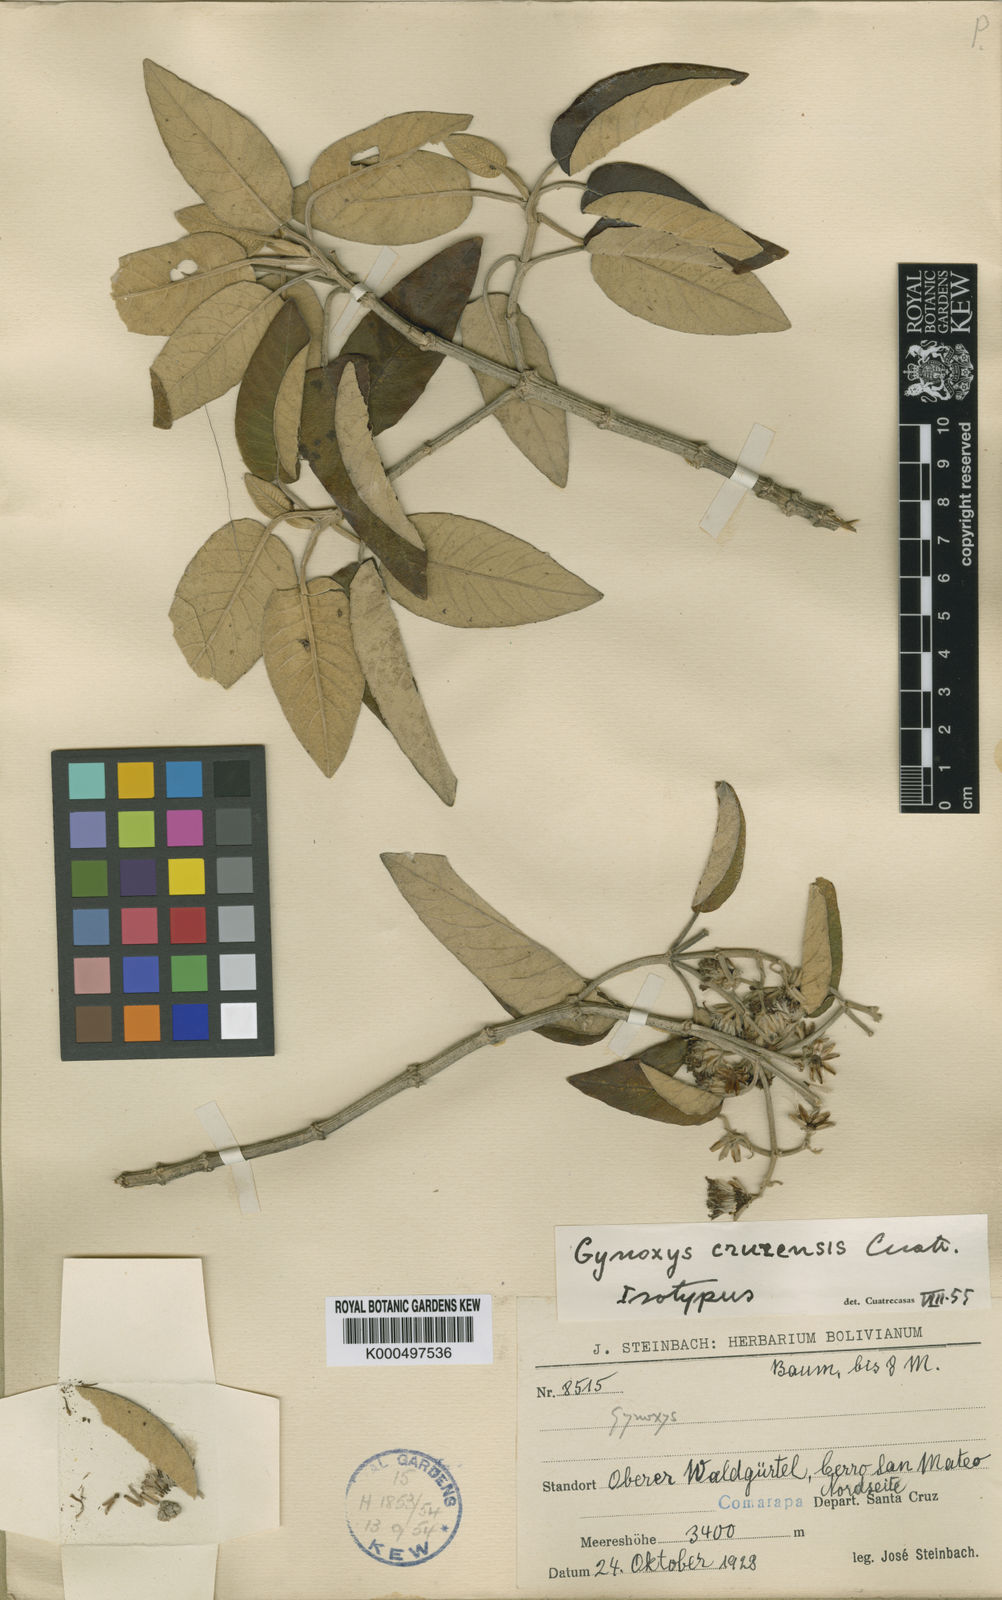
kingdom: Plantae
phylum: Tracheophyta
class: Magnoliopsida
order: Asterales
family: Asteraceae
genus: Gynoxys
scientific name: Gynoxys cruzensis
